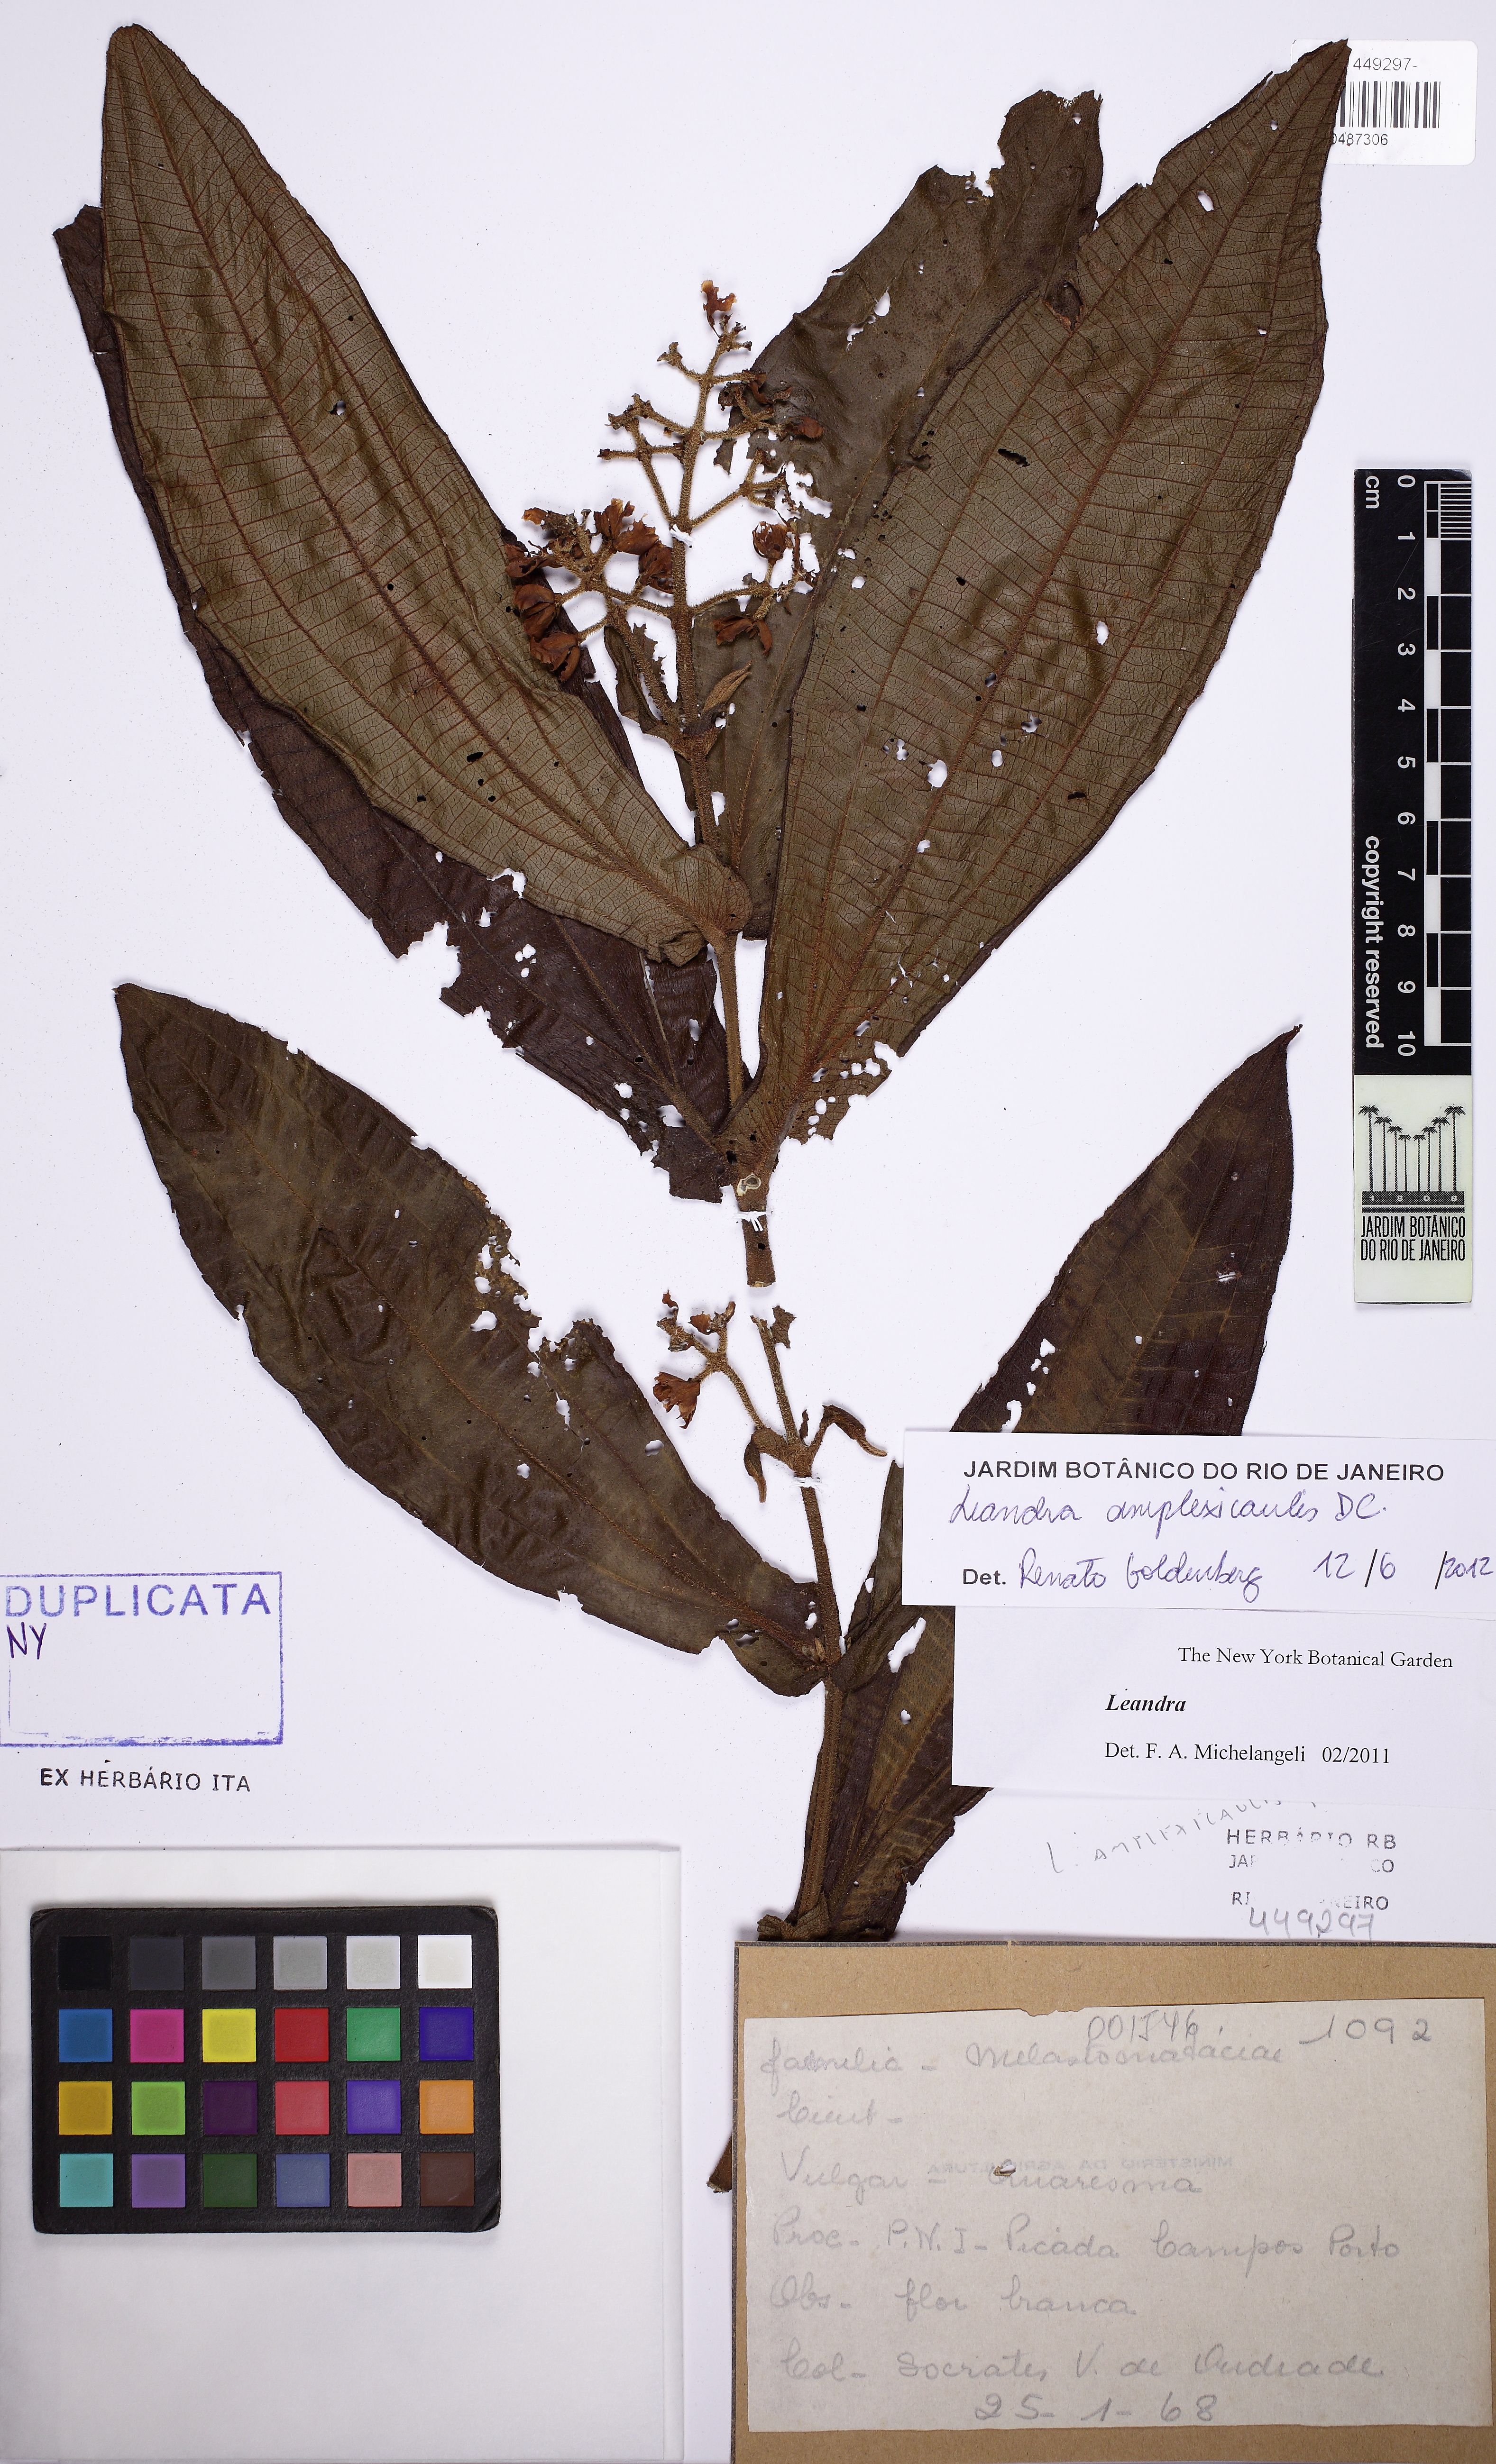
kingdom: Plantae
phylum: Tracheophyta
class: Magnoliopsida
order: Asterales
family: Asteraceae
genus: Piptocarpha
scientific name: Piptocarpha quadrangularis
